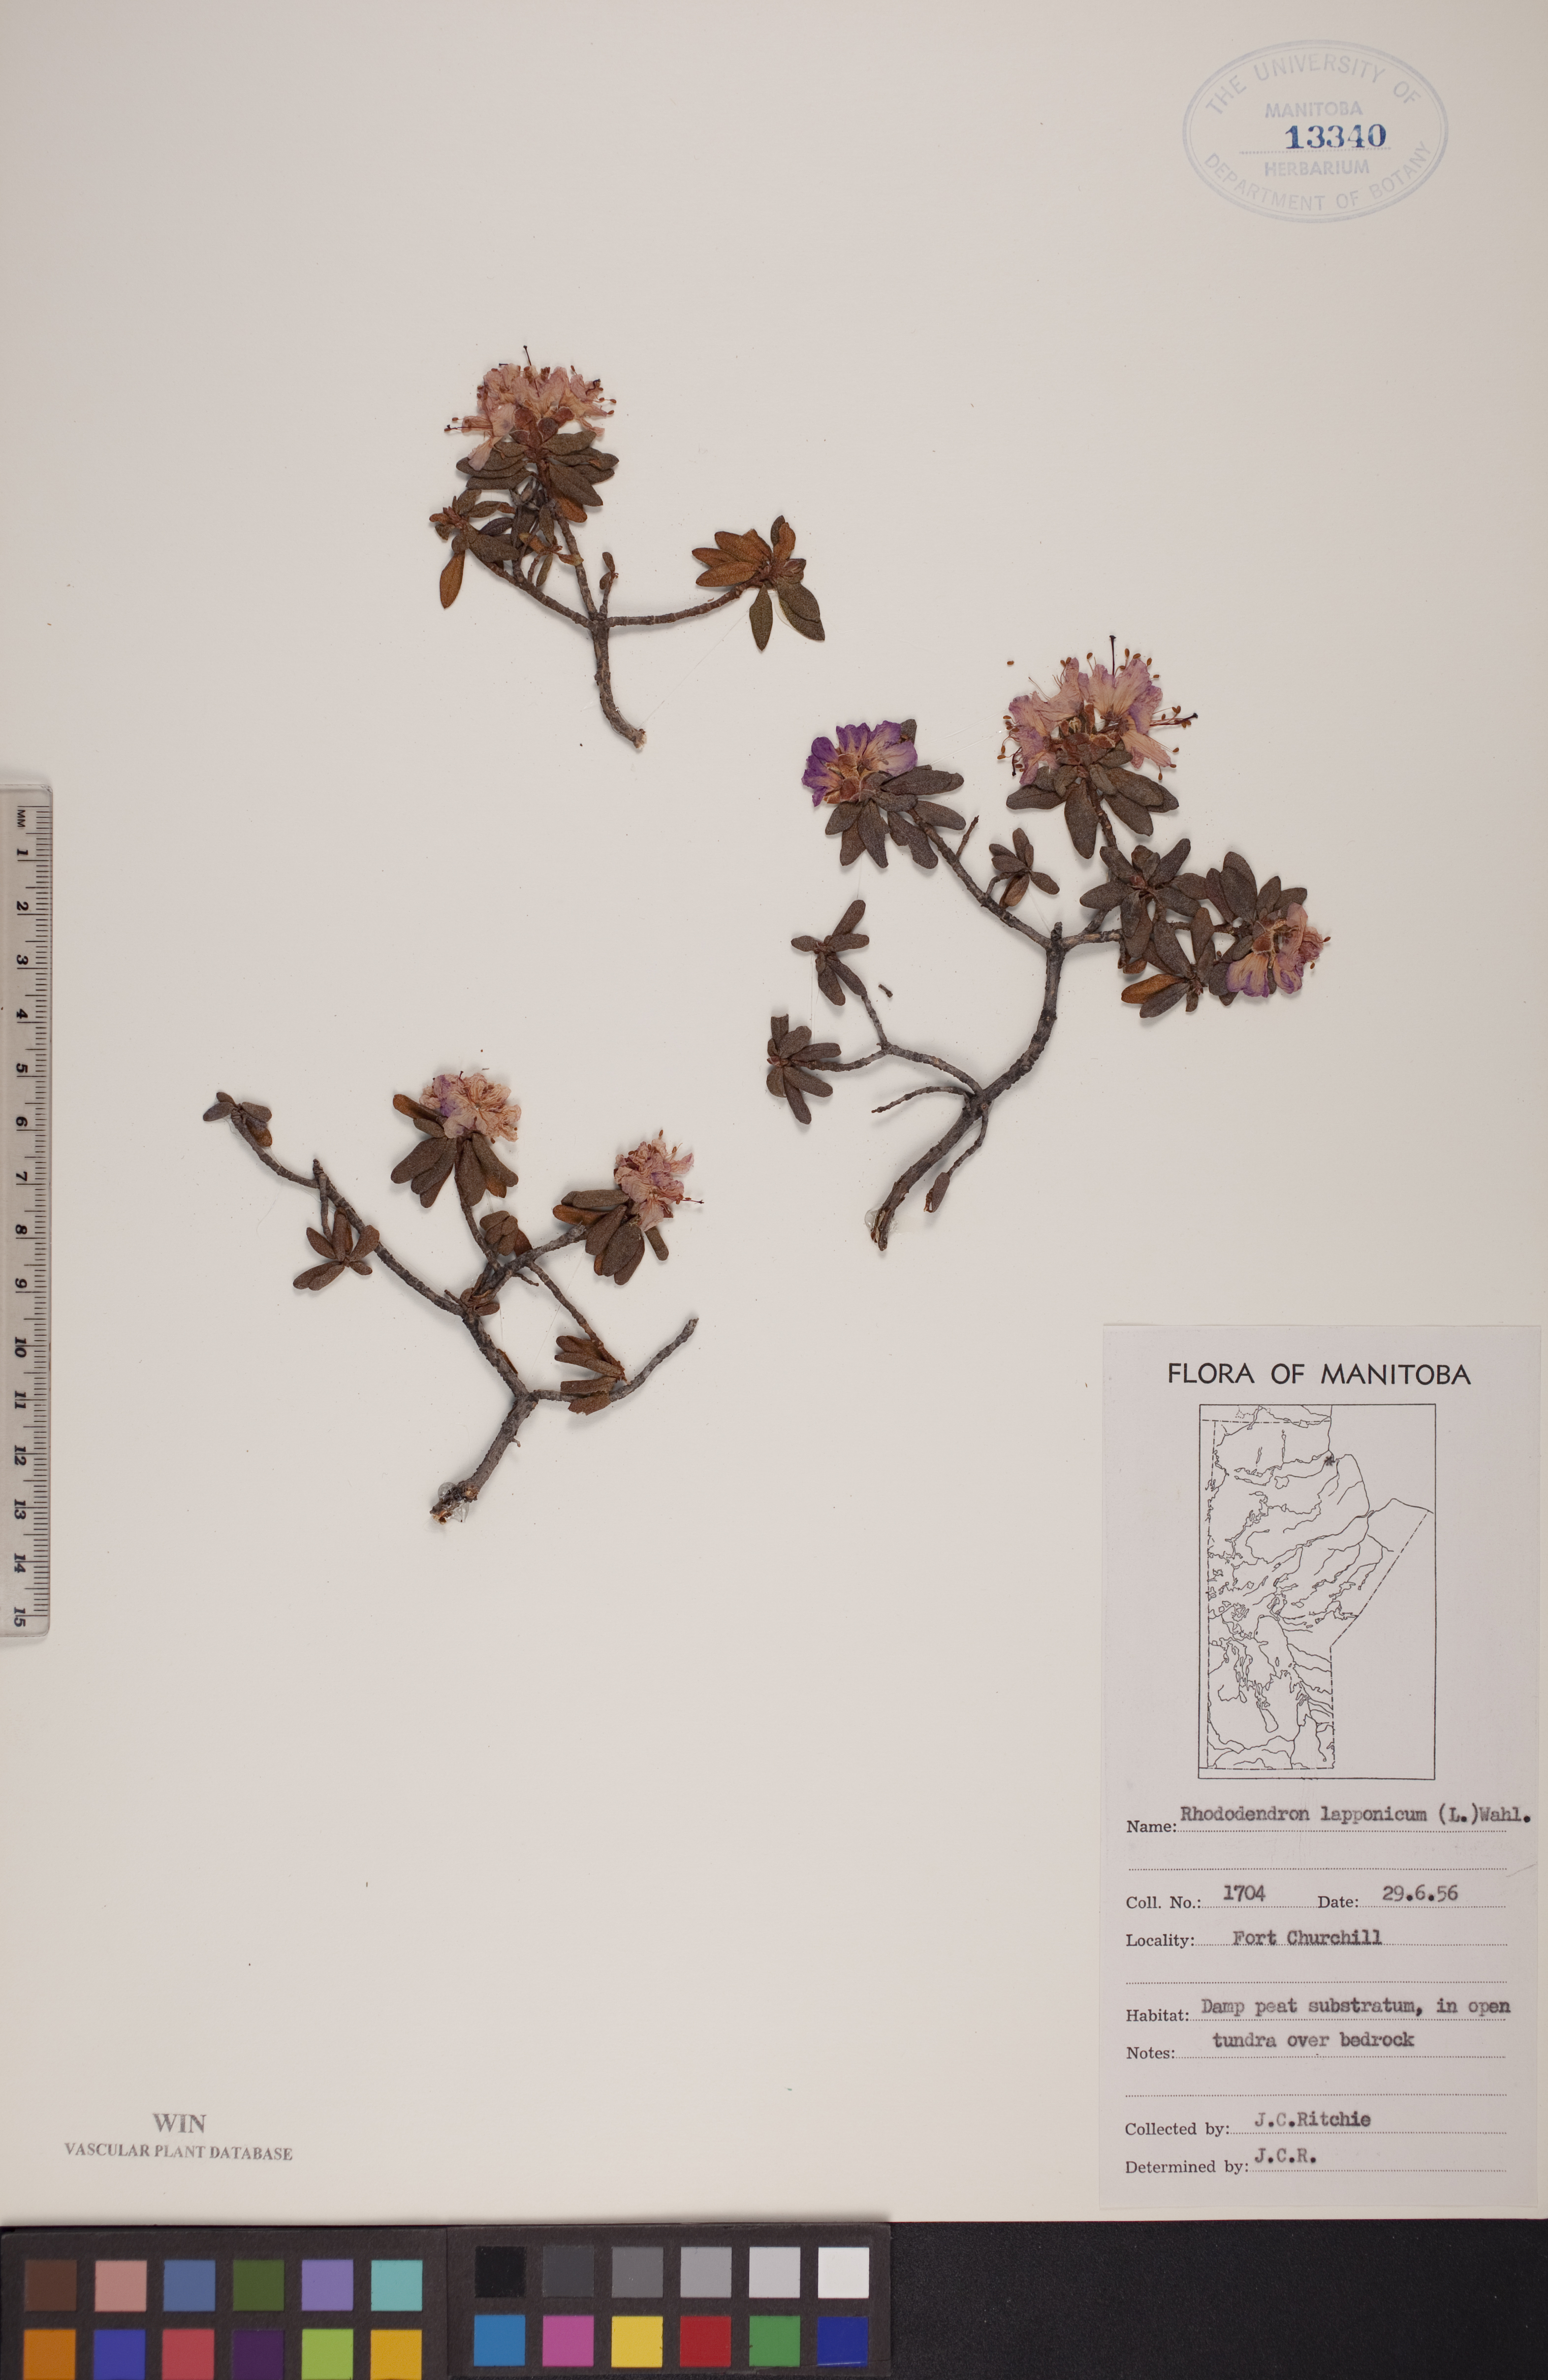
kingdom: Plantae
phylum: Tracheophyta
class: Magnoliopsida
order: Ericales
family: Ericaceae
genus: Rhododendron
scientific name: Rhododendron lapponicum
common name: Lapland rhododendron
